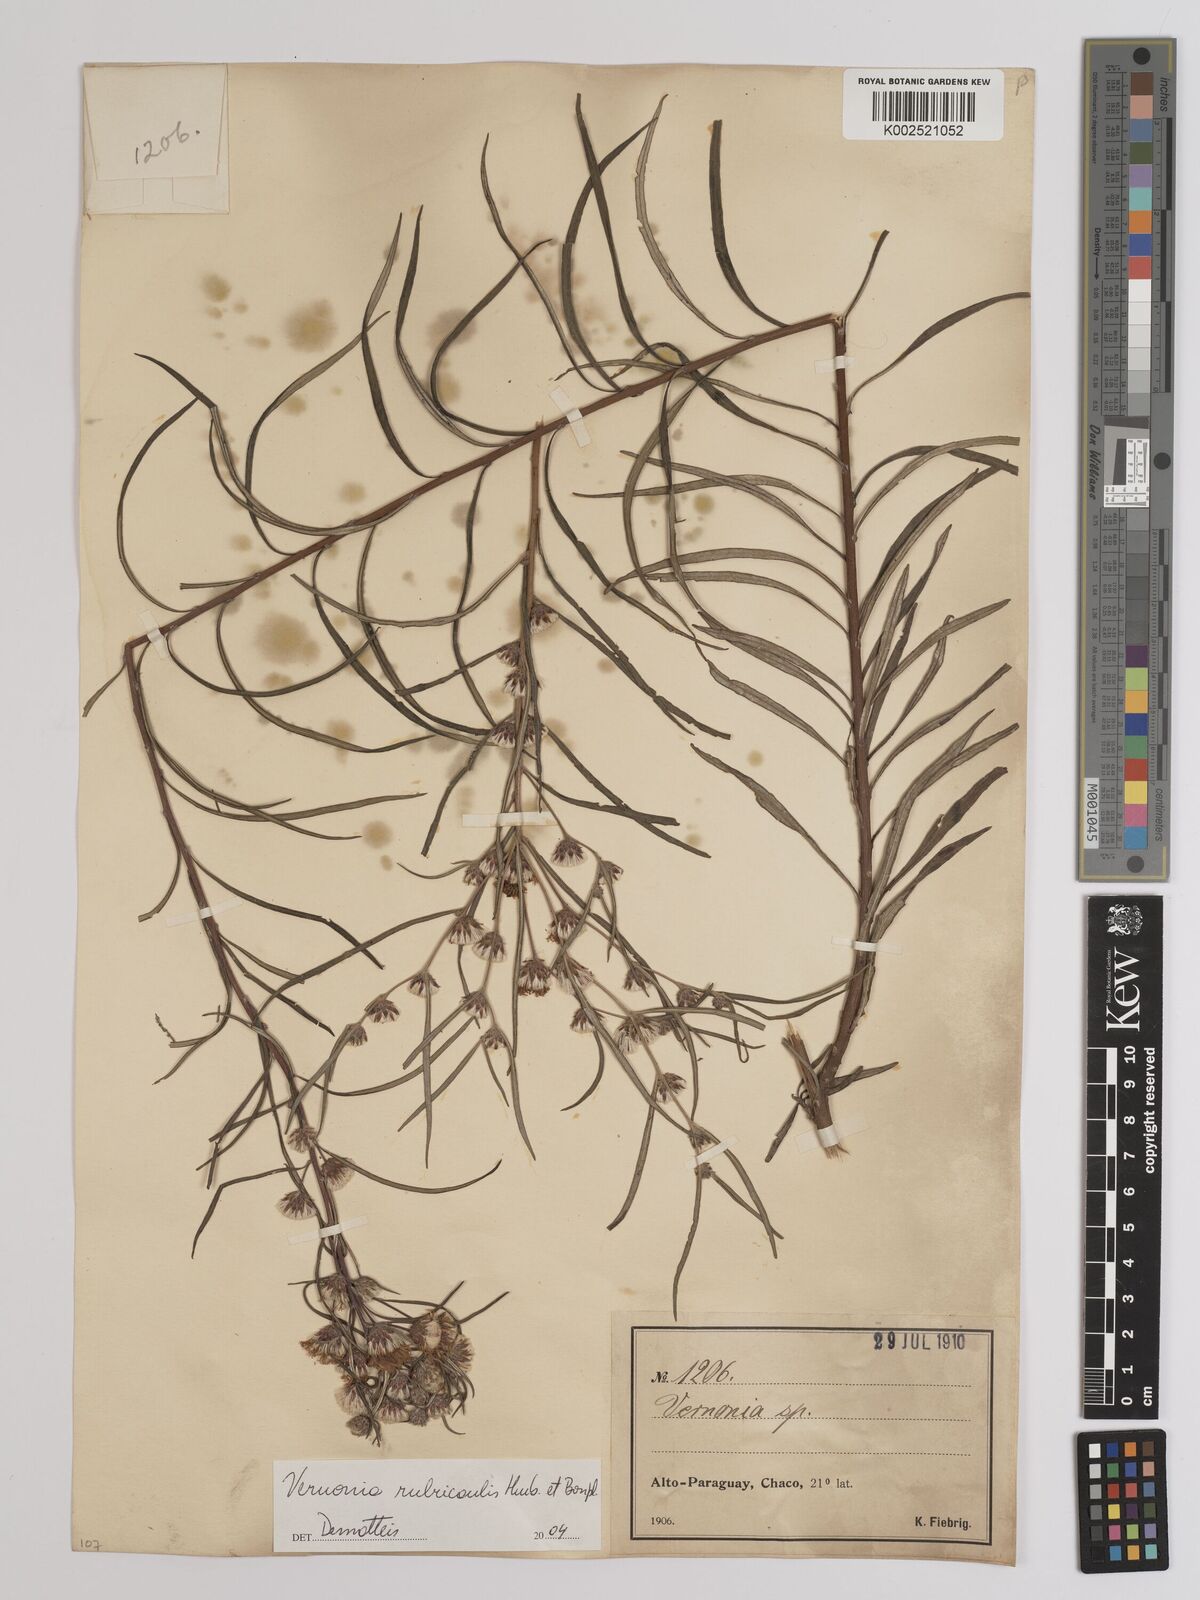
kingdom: Plantae
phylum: Tracheophyta
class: Magnoliopsida
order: Asterales
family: Asteraceae
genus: Lessingianthus
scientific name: Lessingianthus rubricaulis
